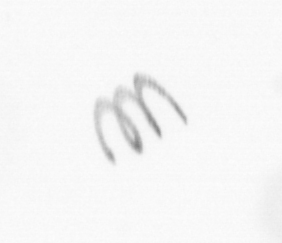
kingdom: Chromista
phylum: Ochrophyta
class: Bacillariophyceae
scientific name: Bacillariophyceae
